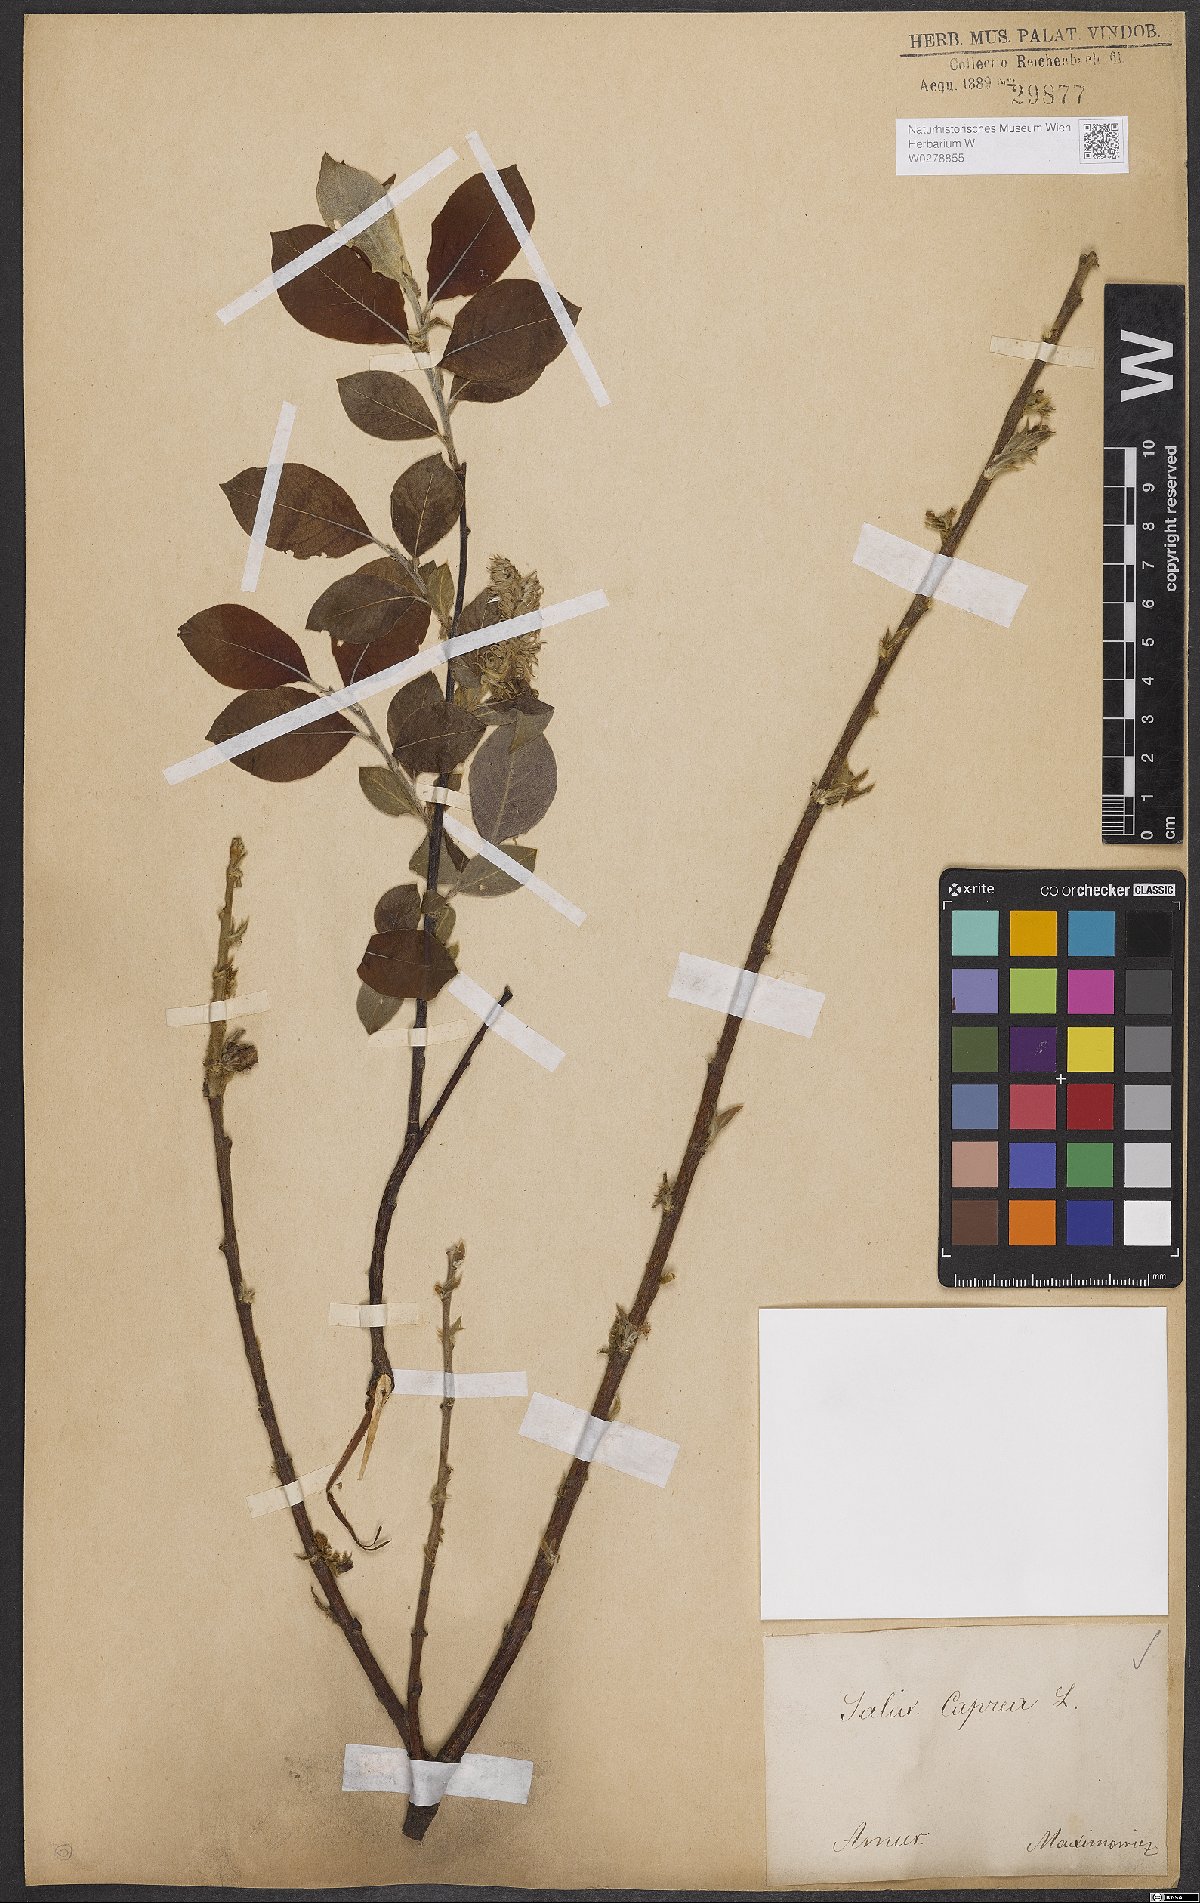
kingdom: Plantae
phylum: Tracheophyta
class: Magnoliopsida
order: Malpighiales
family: Salicaceae
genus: Salix
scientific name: Salix caprea
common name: Goat willow
